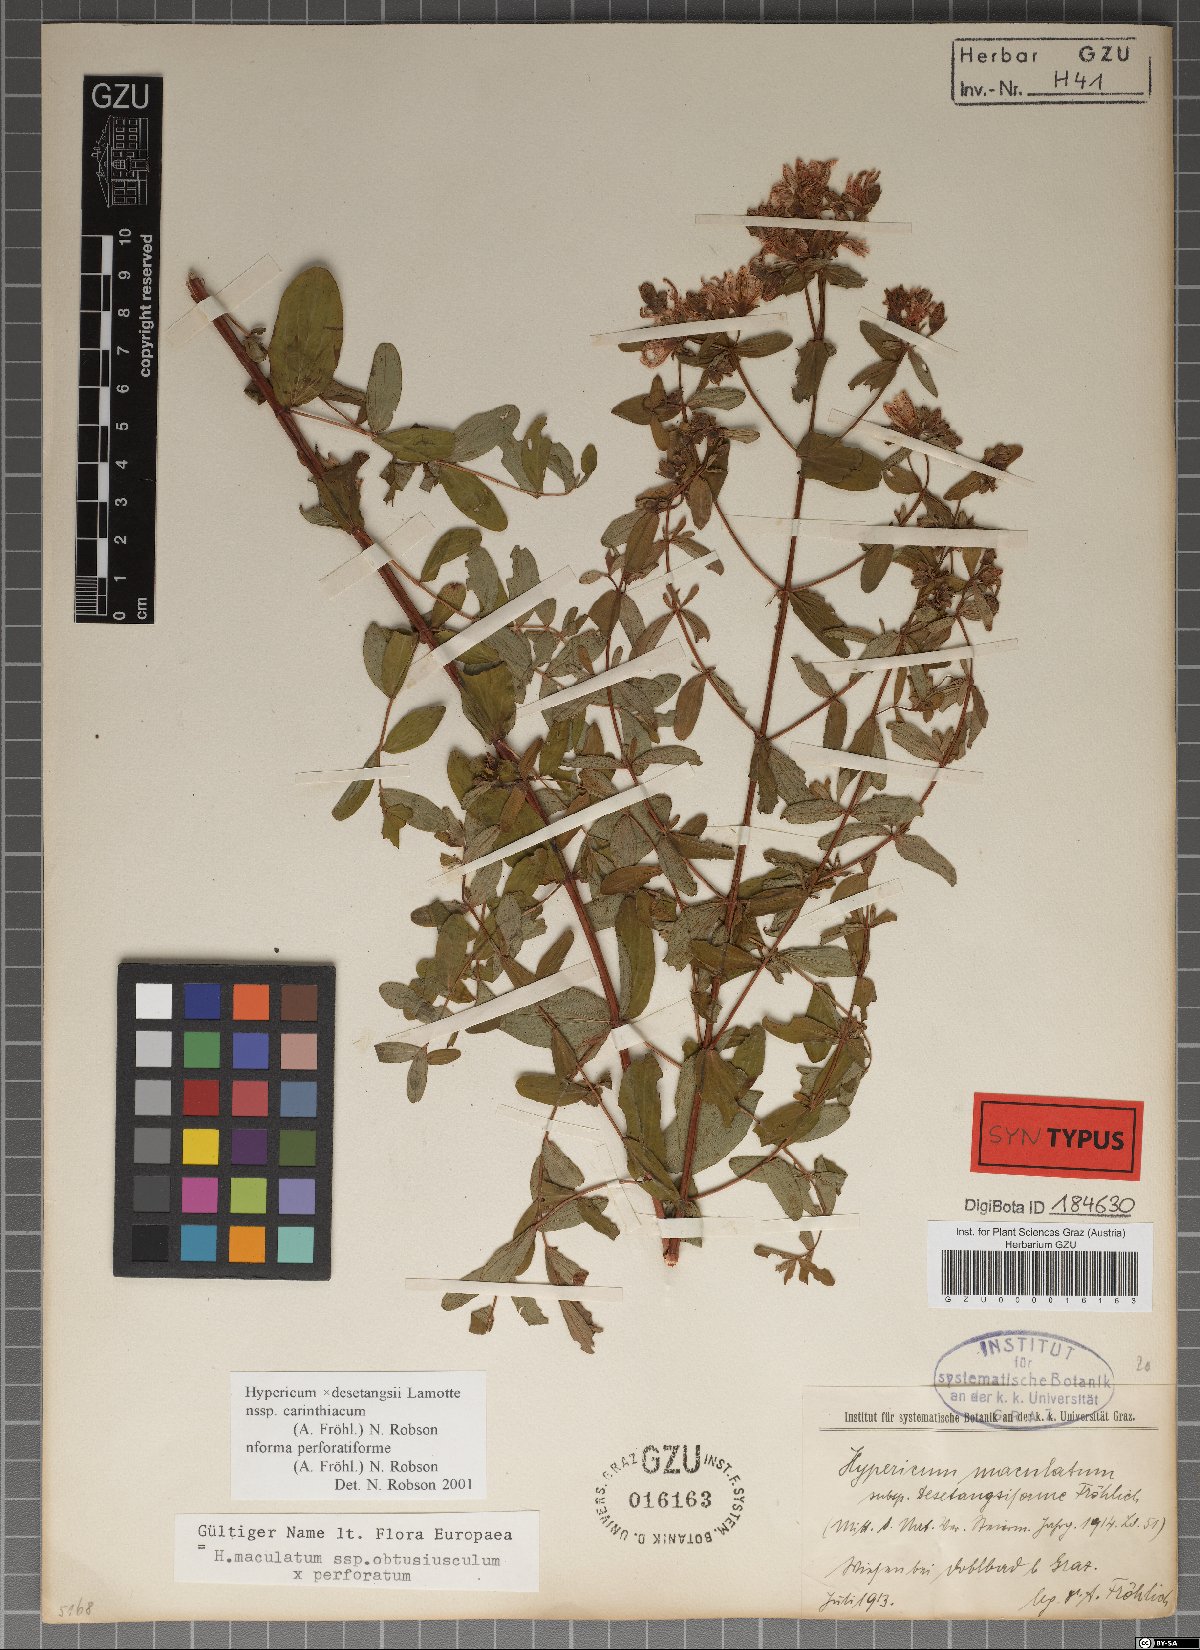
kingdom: Plantae
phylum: Tracheophyta
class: Magnoliopsida
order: Malpighiales
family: Hypericaceae
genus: Hypericum
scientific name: Hypericum carinthiacum
